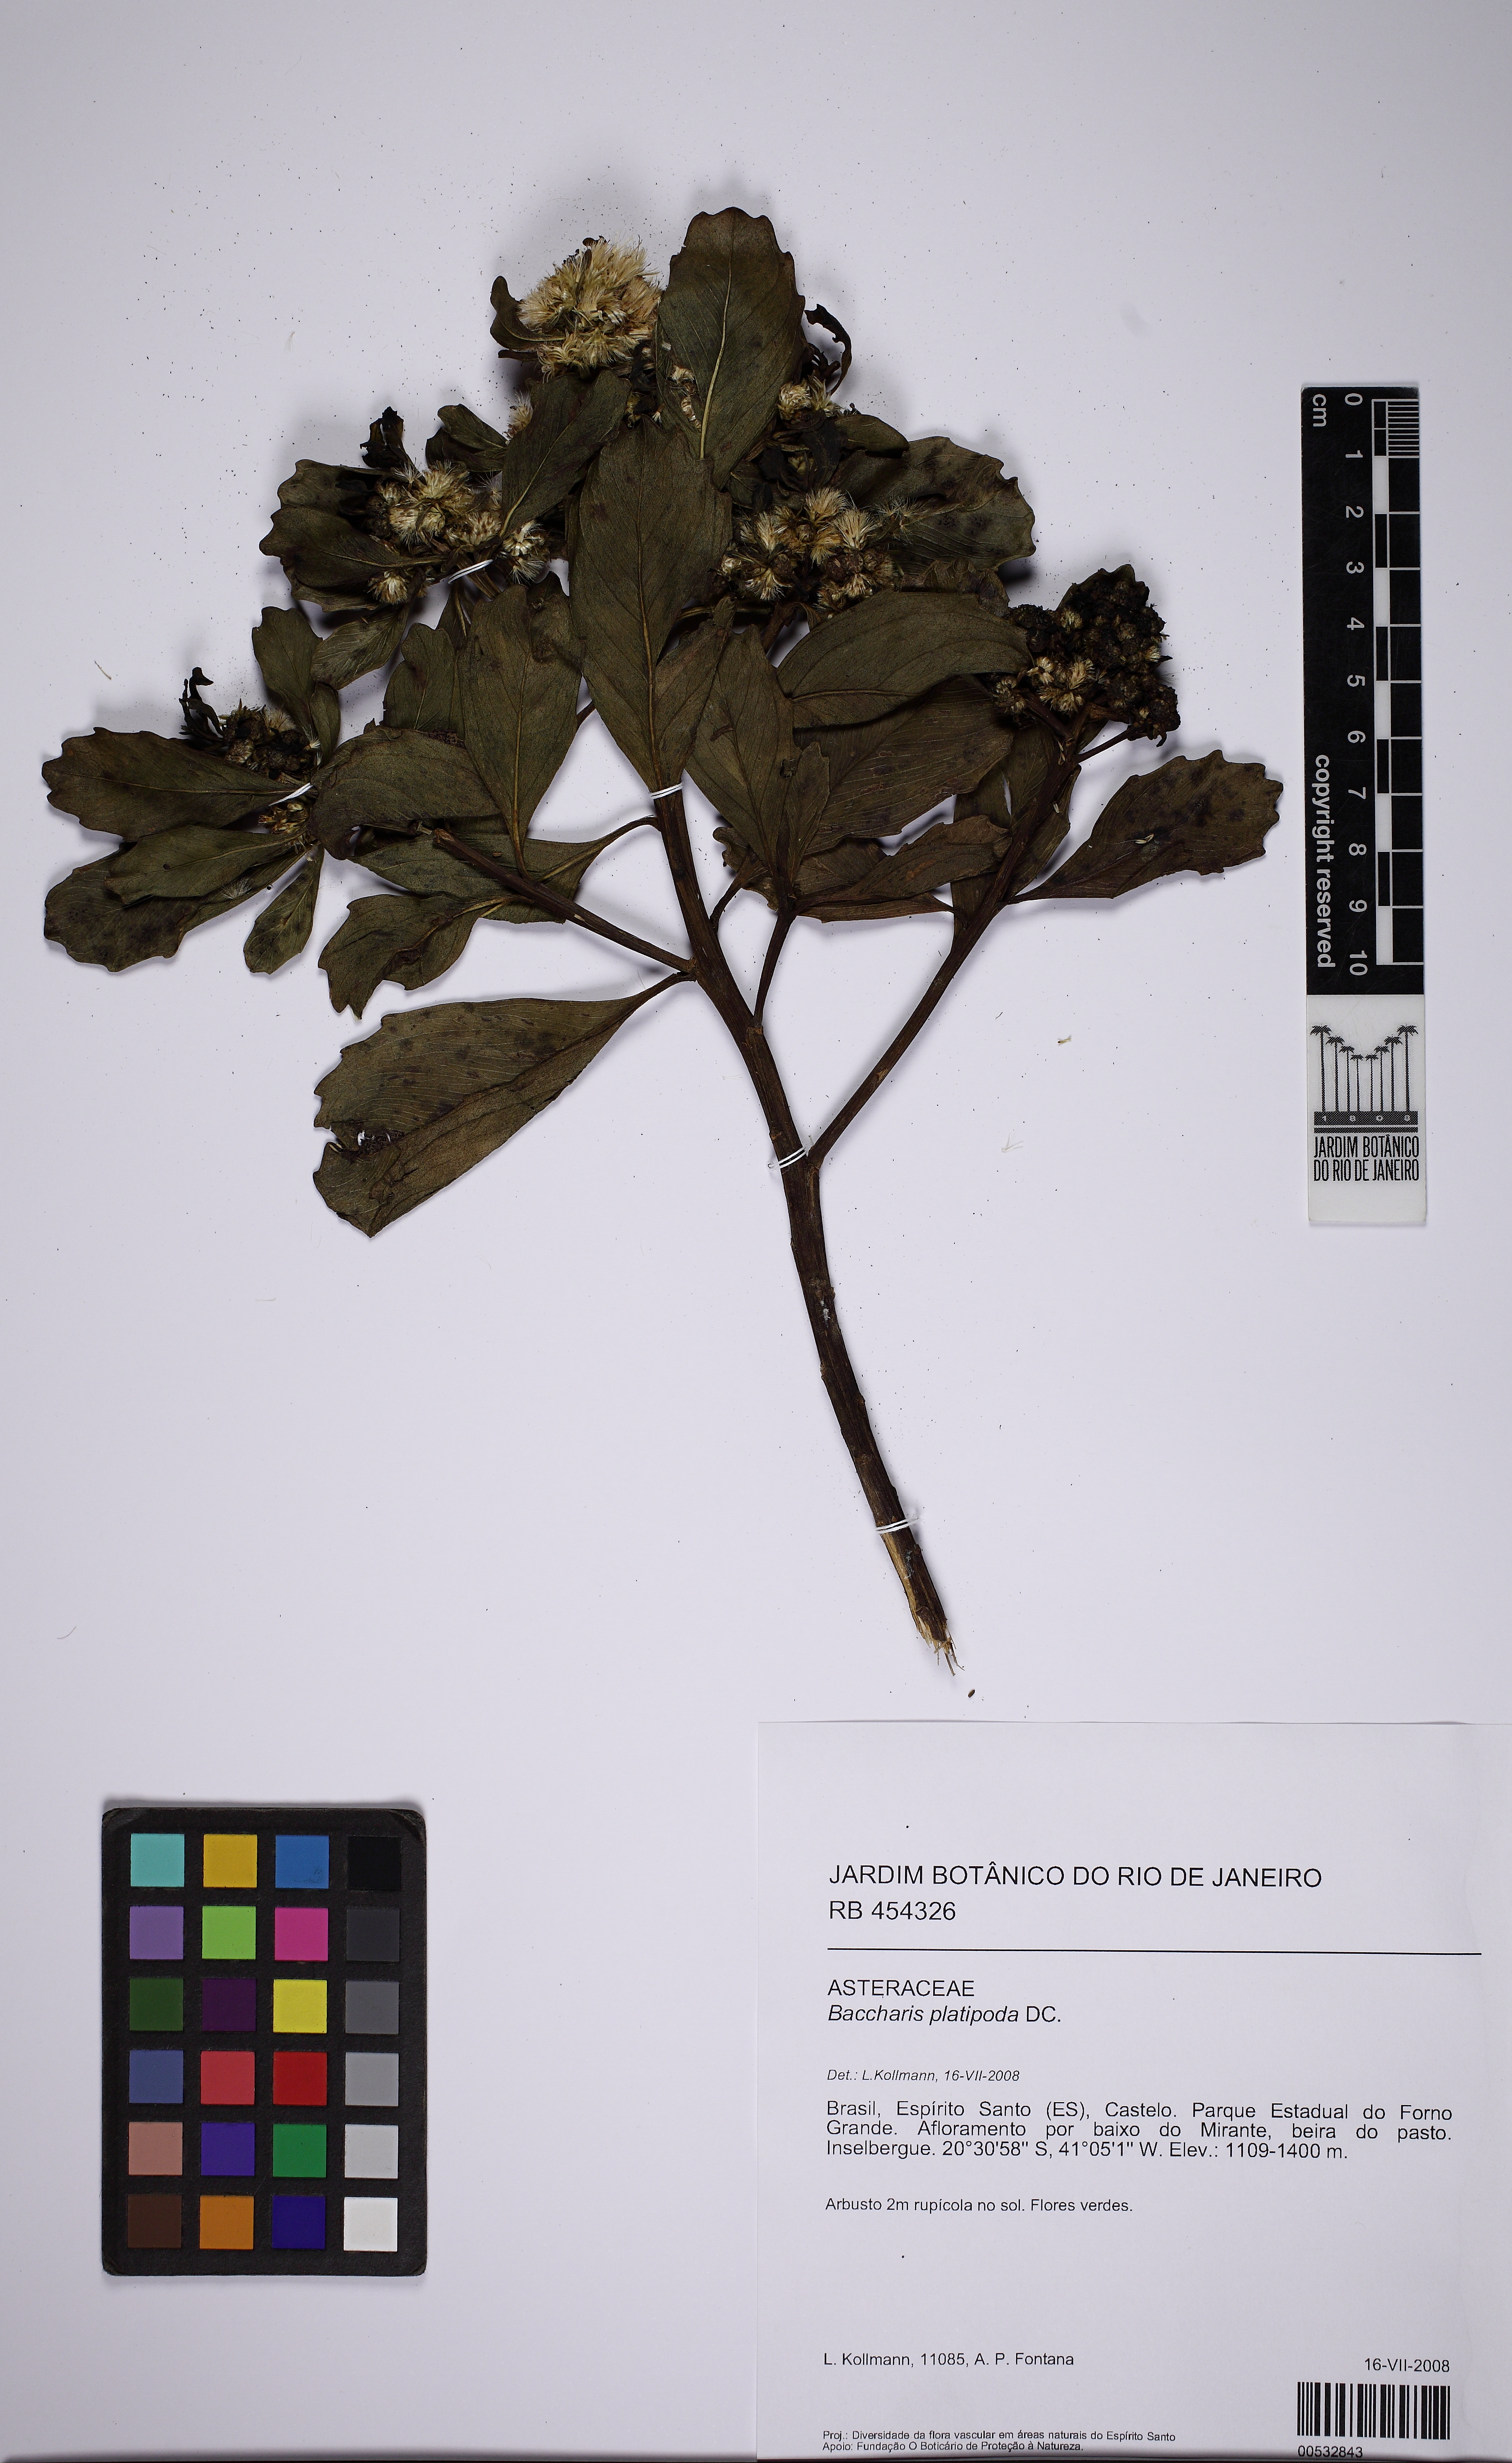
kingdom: Plantae
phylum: Tracheophyta
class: Magnoliopsida
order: Asterales
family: Asteraceae
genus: Baccharis
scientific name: Baccharis platypoda
